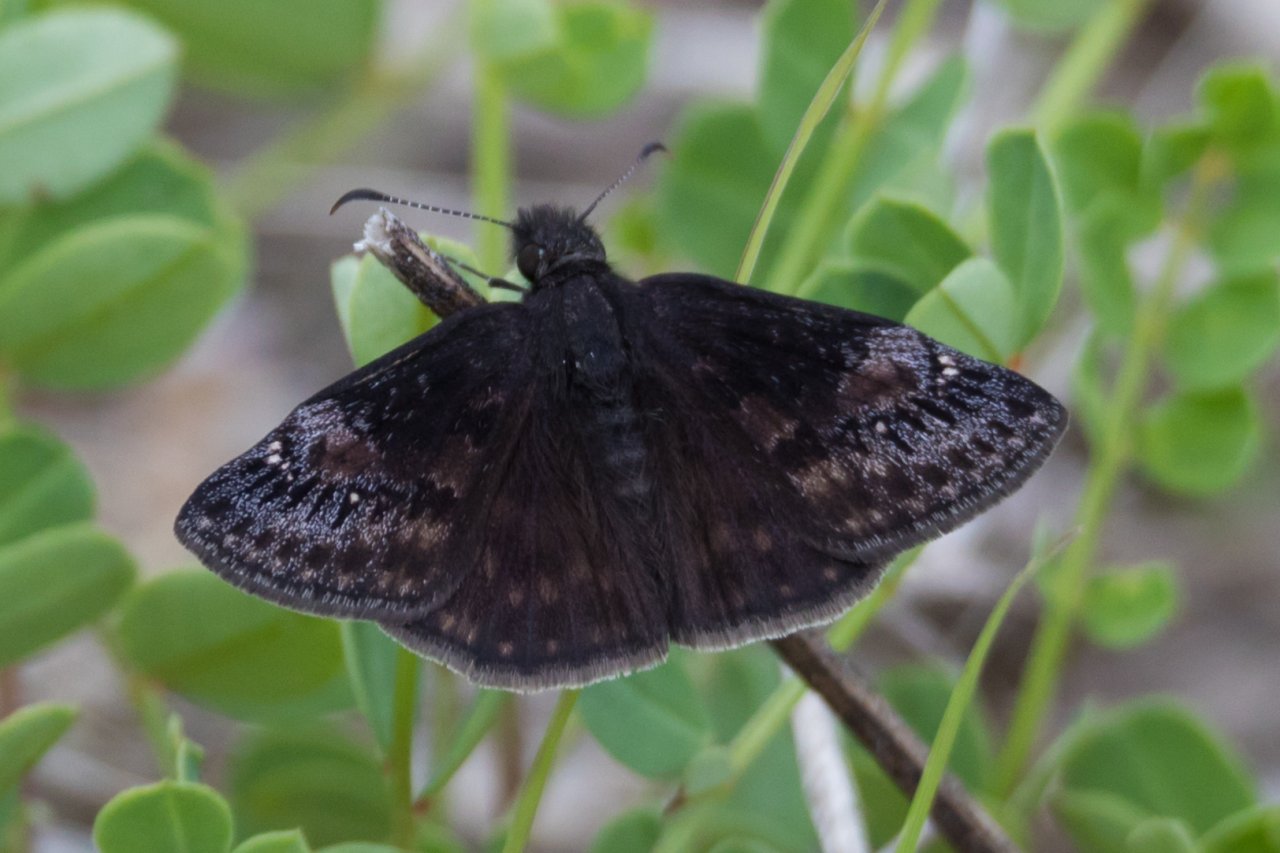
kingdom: Animalia
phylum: Arthropoda
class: Insecta
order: Lepidoptera
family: Hesperiidae
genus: Gesta
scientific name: Gesta
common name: Wild Indigo Duskywing
